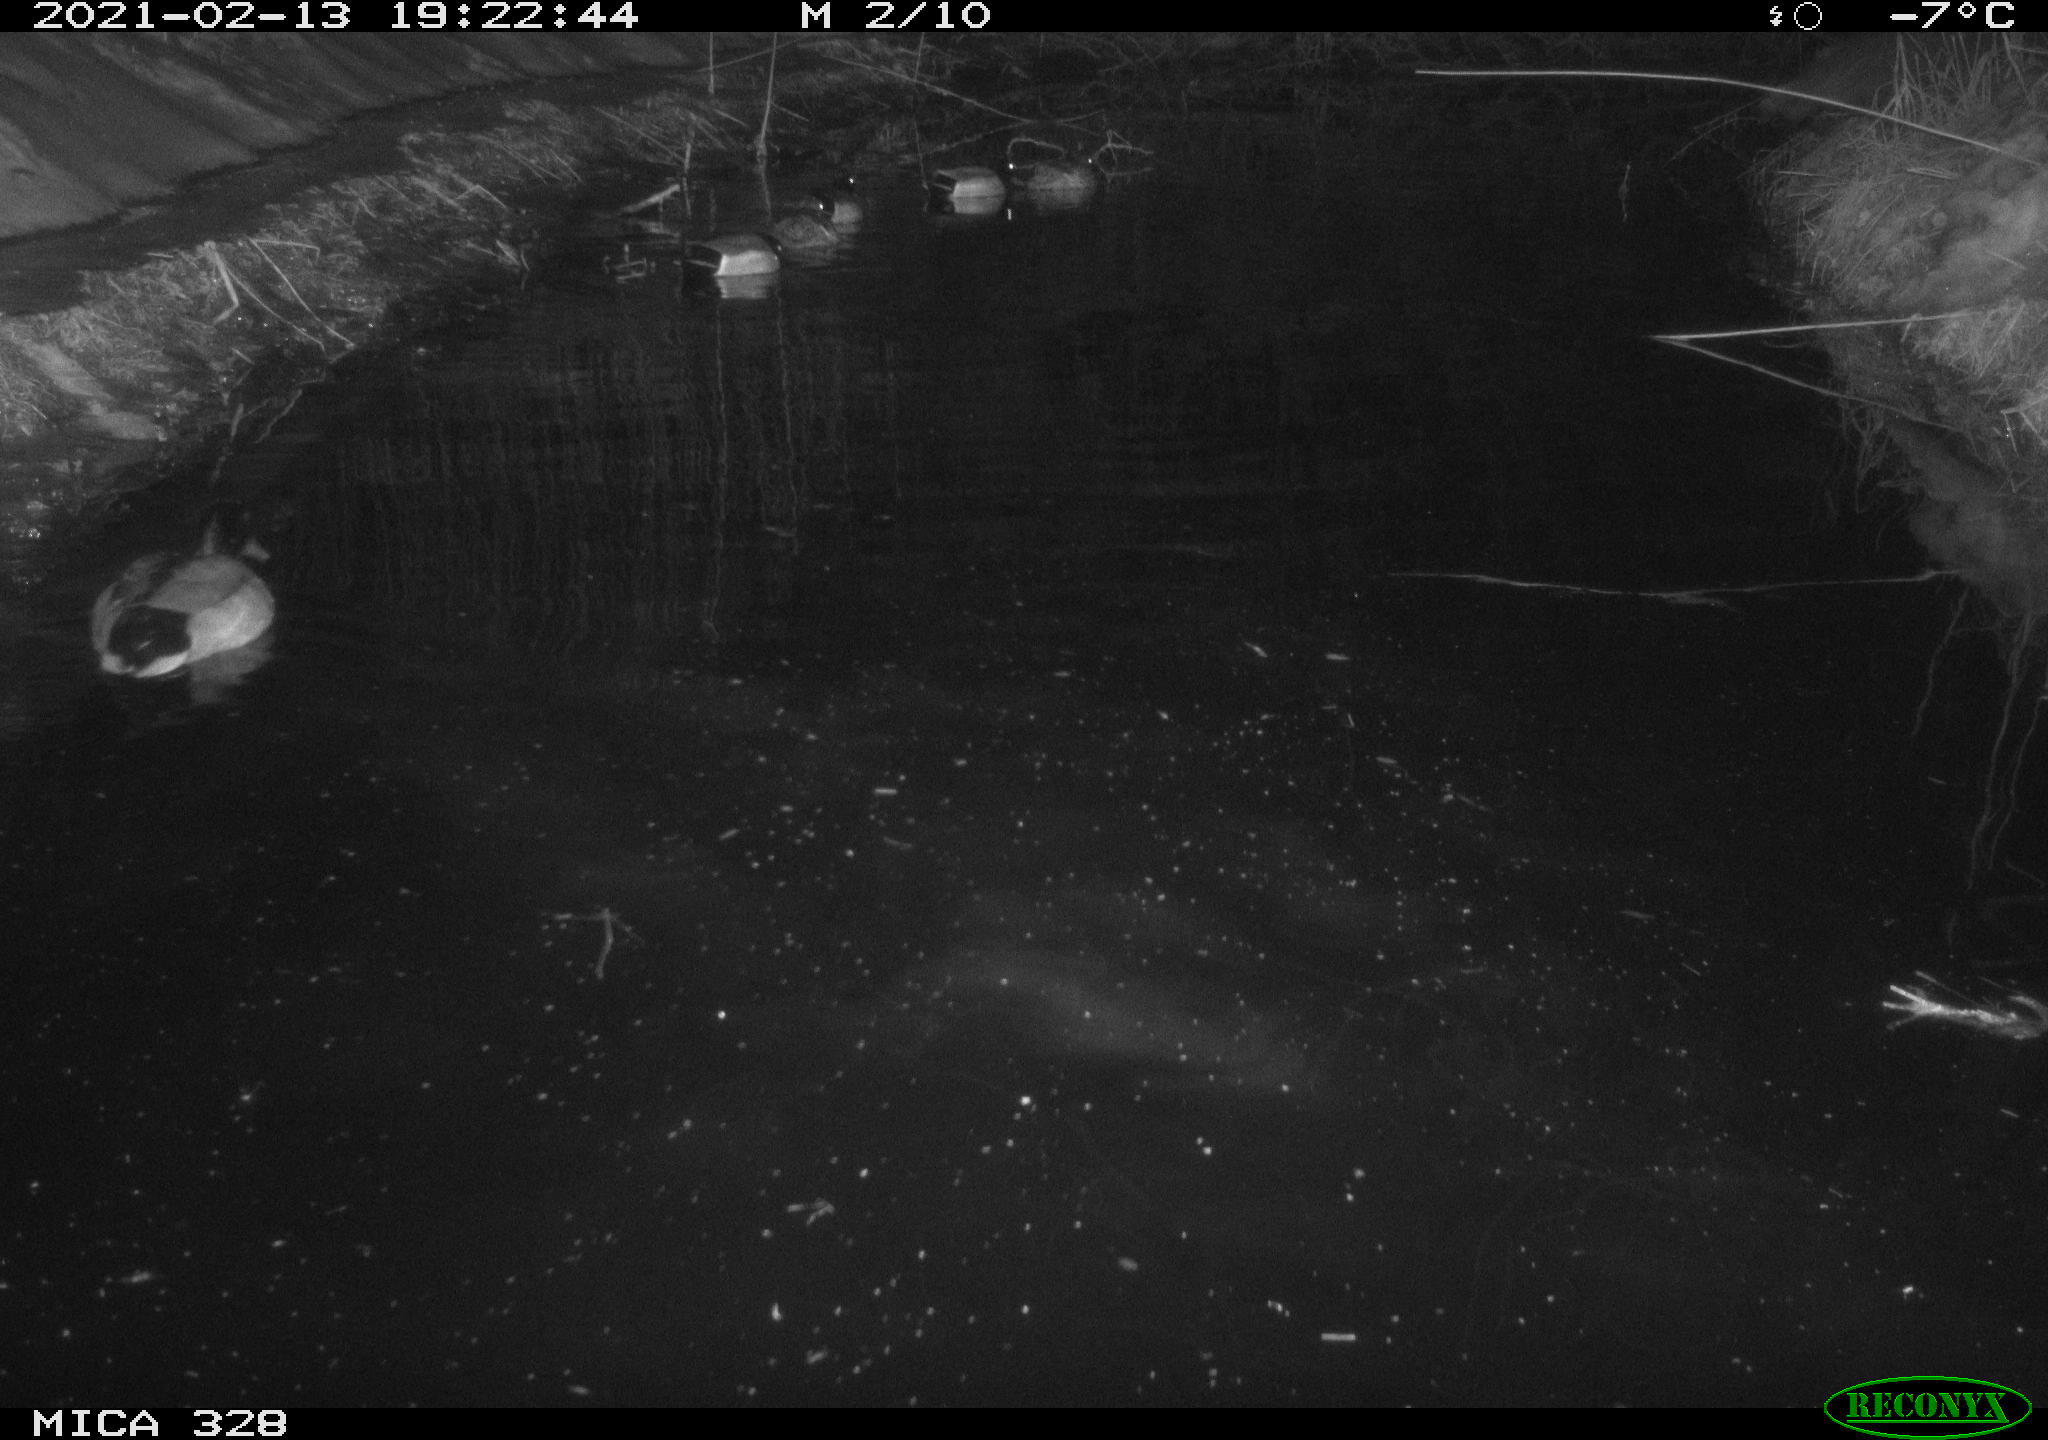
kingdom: Animalia
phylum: Chordata
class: Aves
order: Anseriformes
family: Anatidae
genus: Anas
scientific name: Anas platyrhynchos
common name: Mallard
